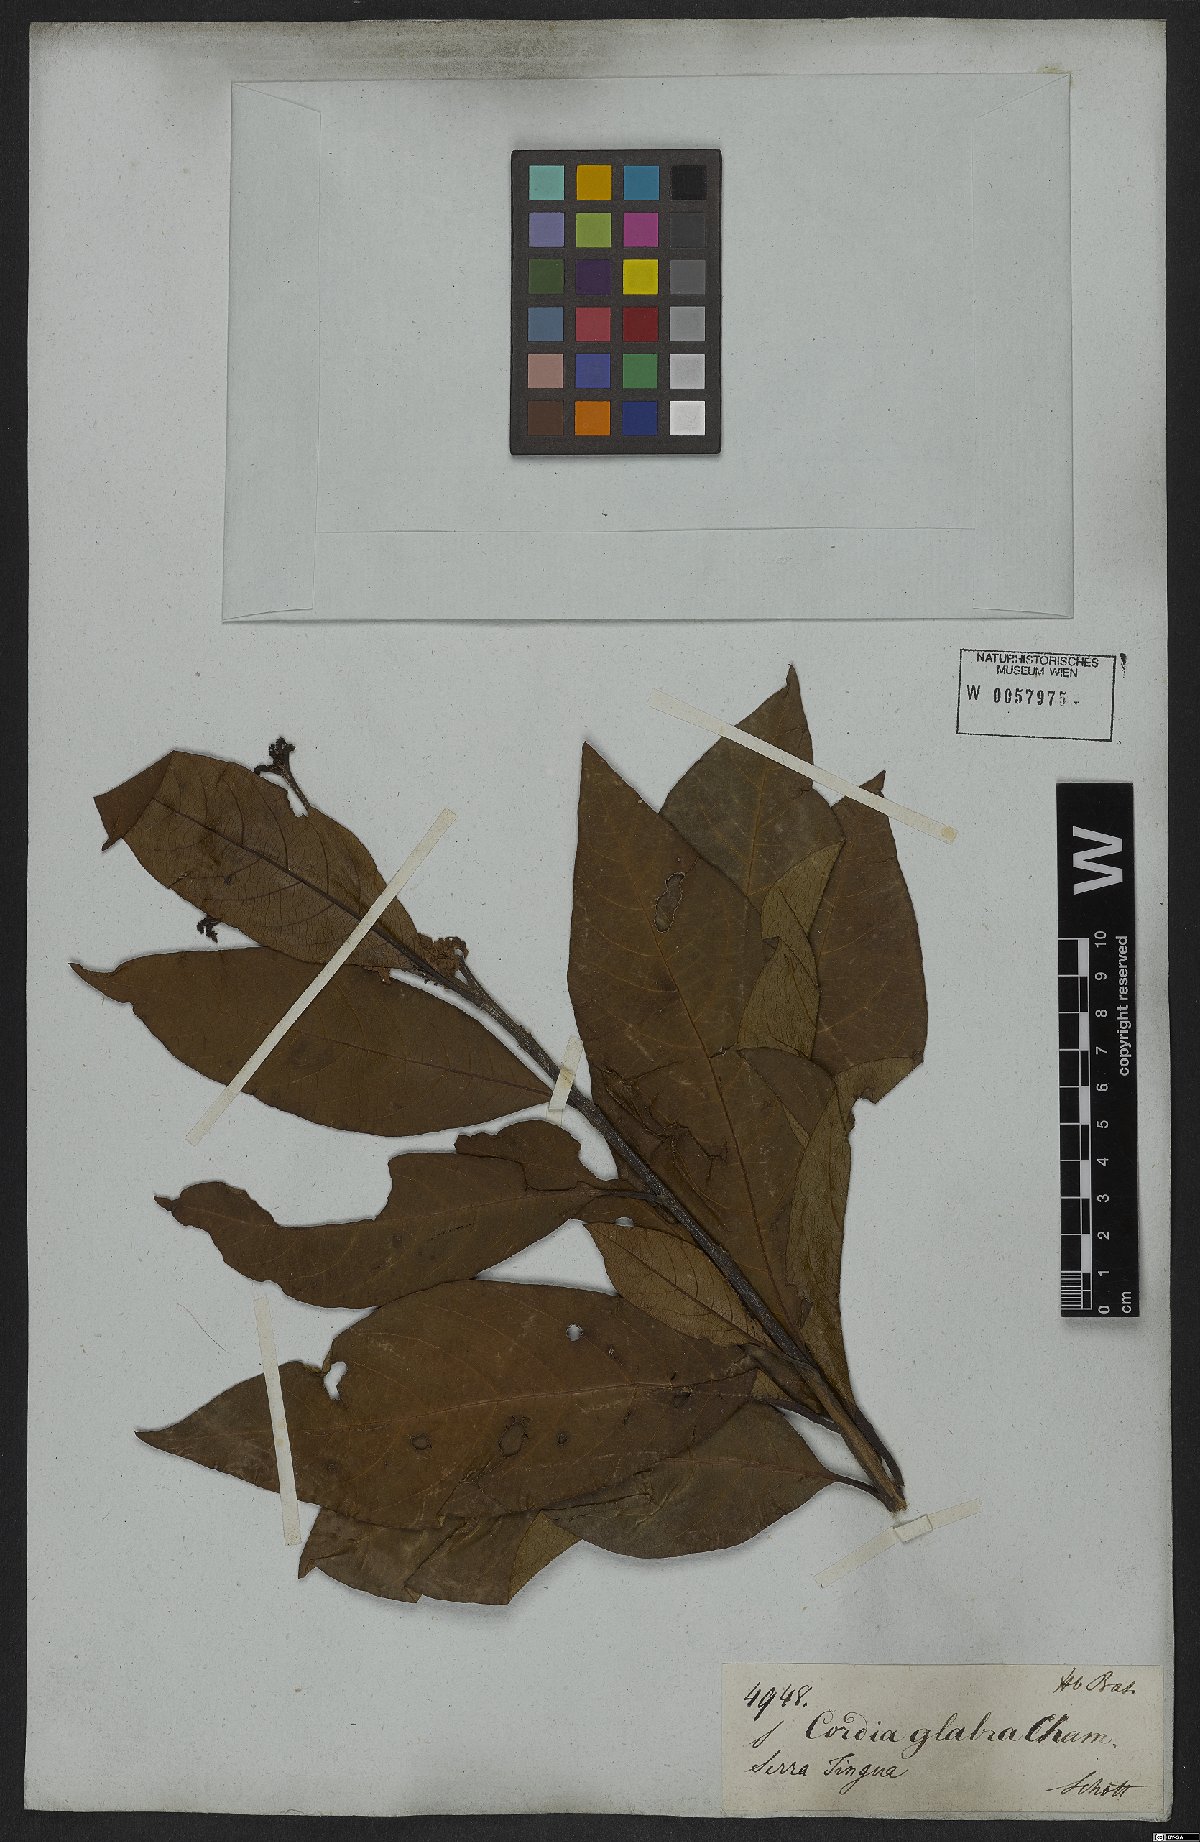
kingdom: Plantae
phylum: Tracheophyta
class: Magnoliopsida
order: Boraginales
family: Cordiaceae
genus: Cordia
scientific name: Cordia glabra
